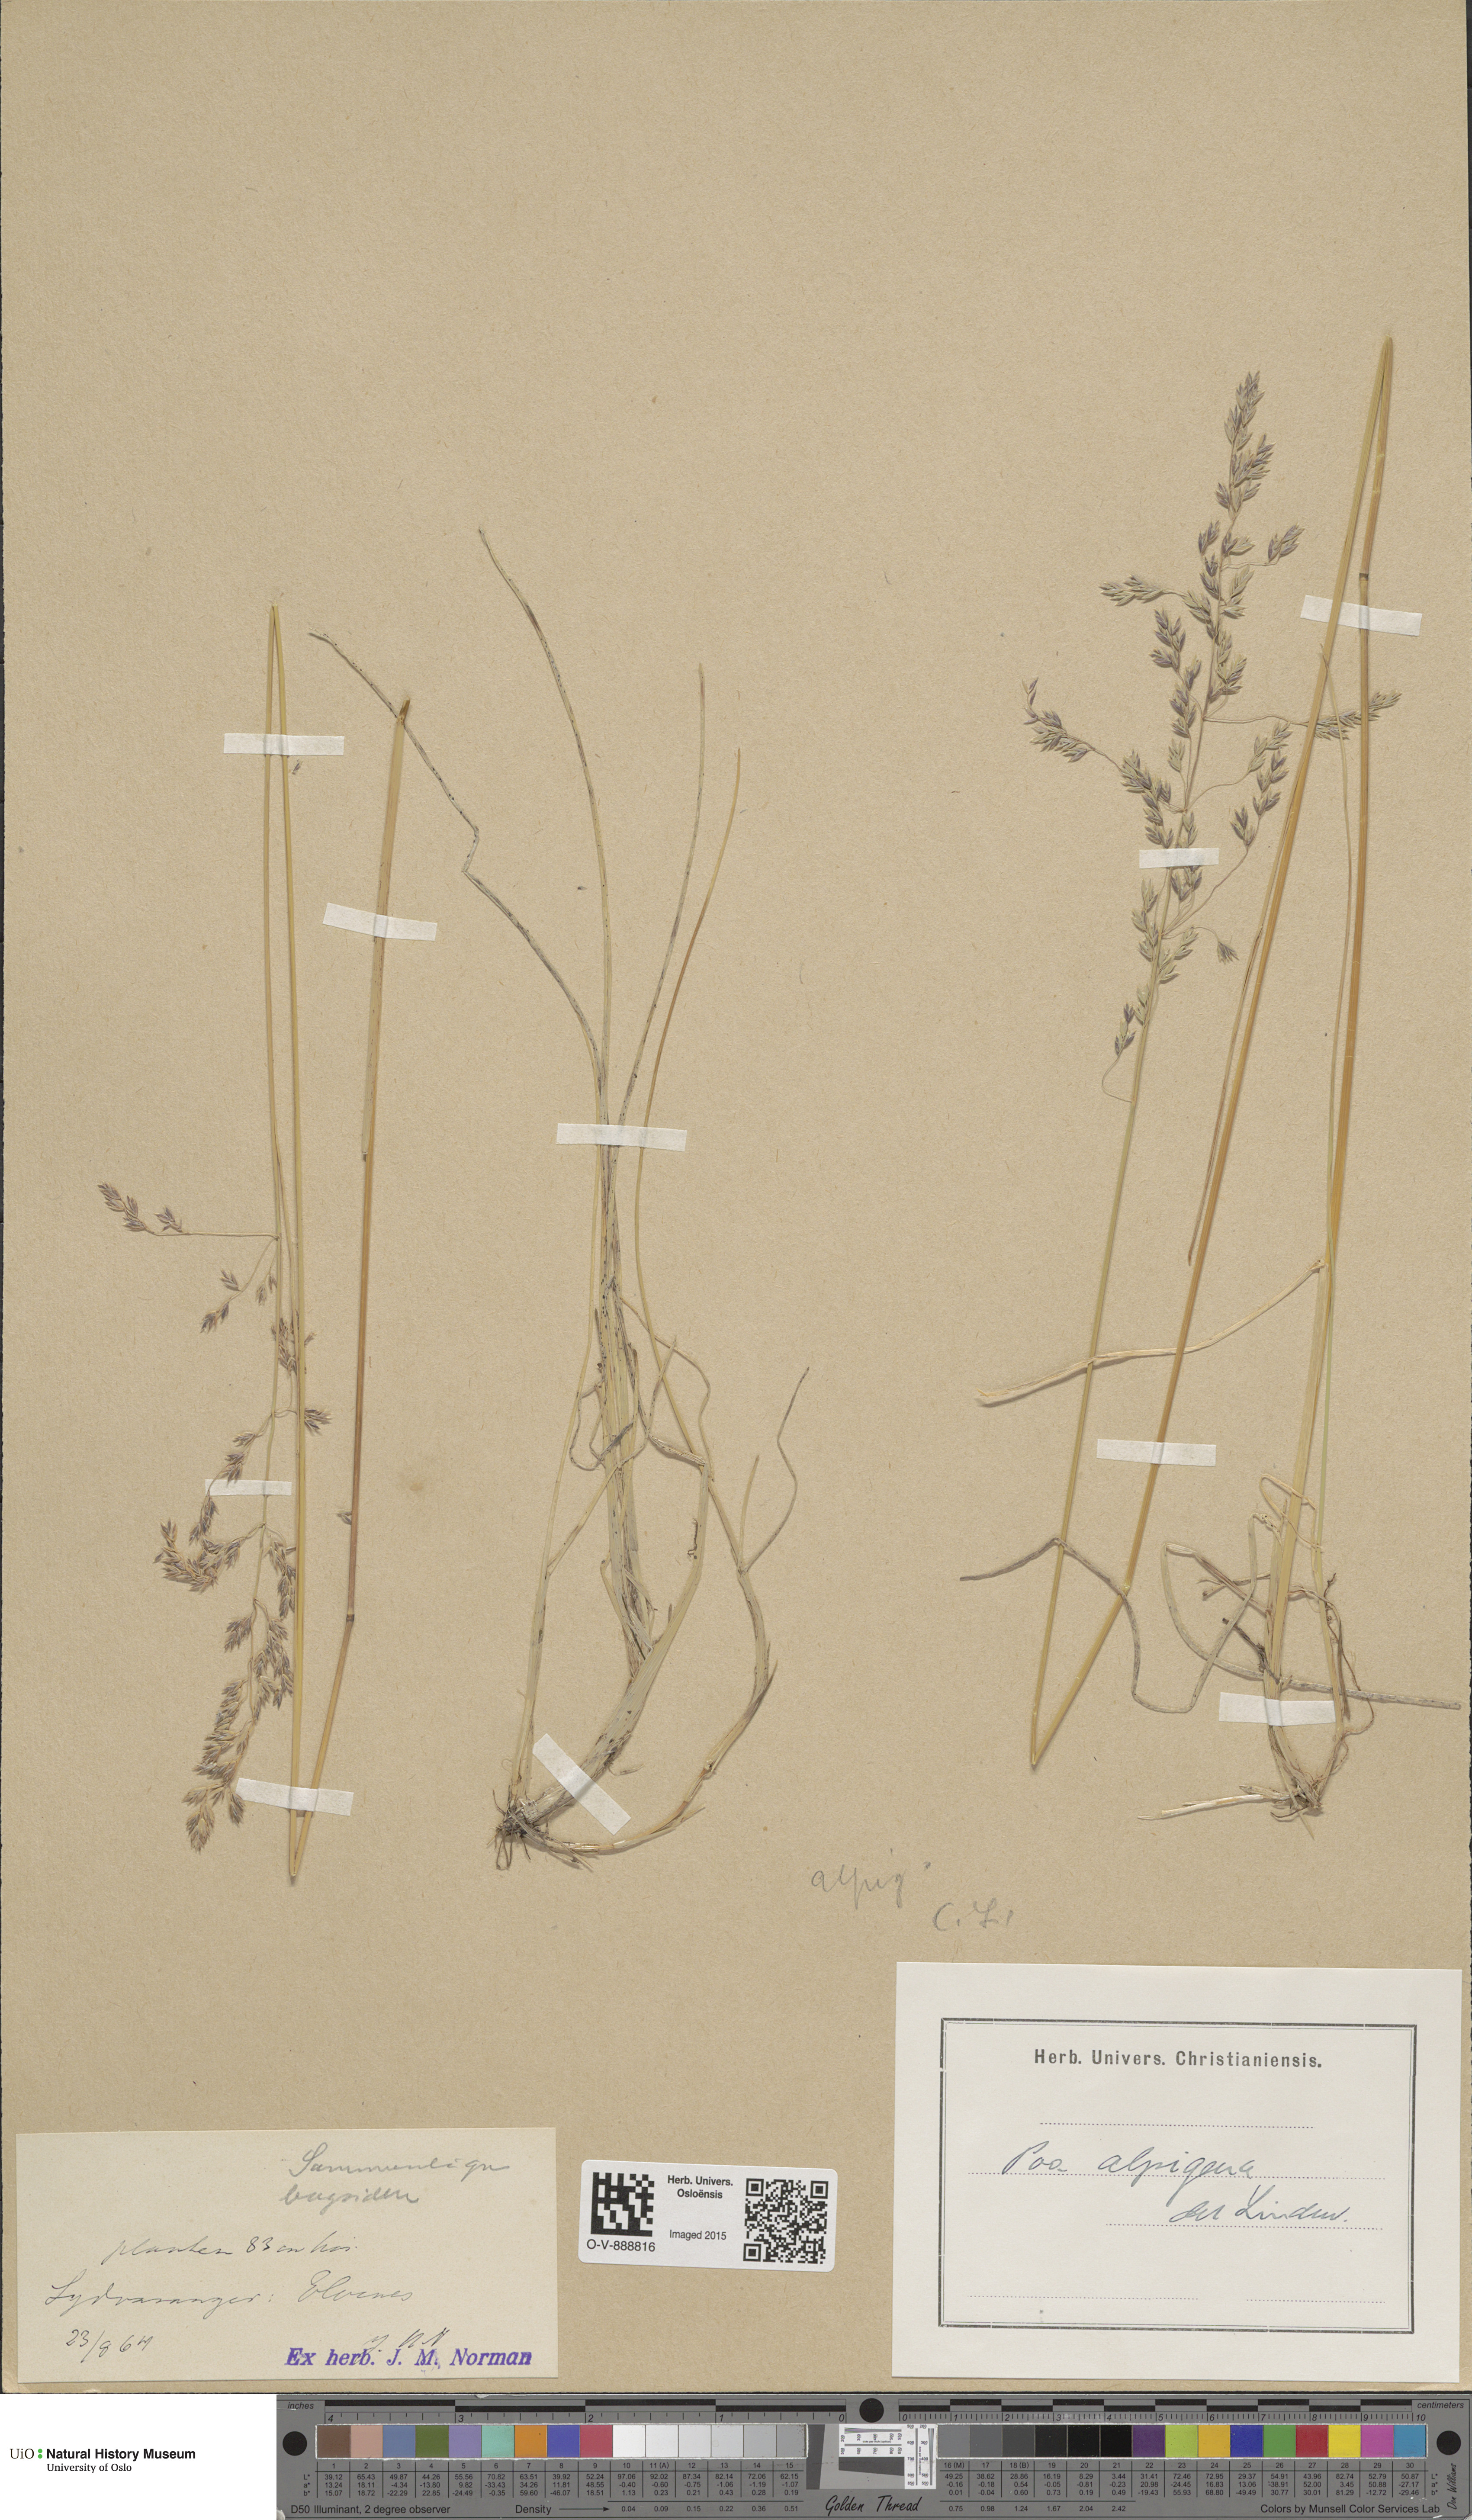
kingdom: Plantae
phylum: Tracheophyta
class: Liliopsida
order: Poales
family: Poaceae
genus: Poa
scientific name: Poa alpigena
